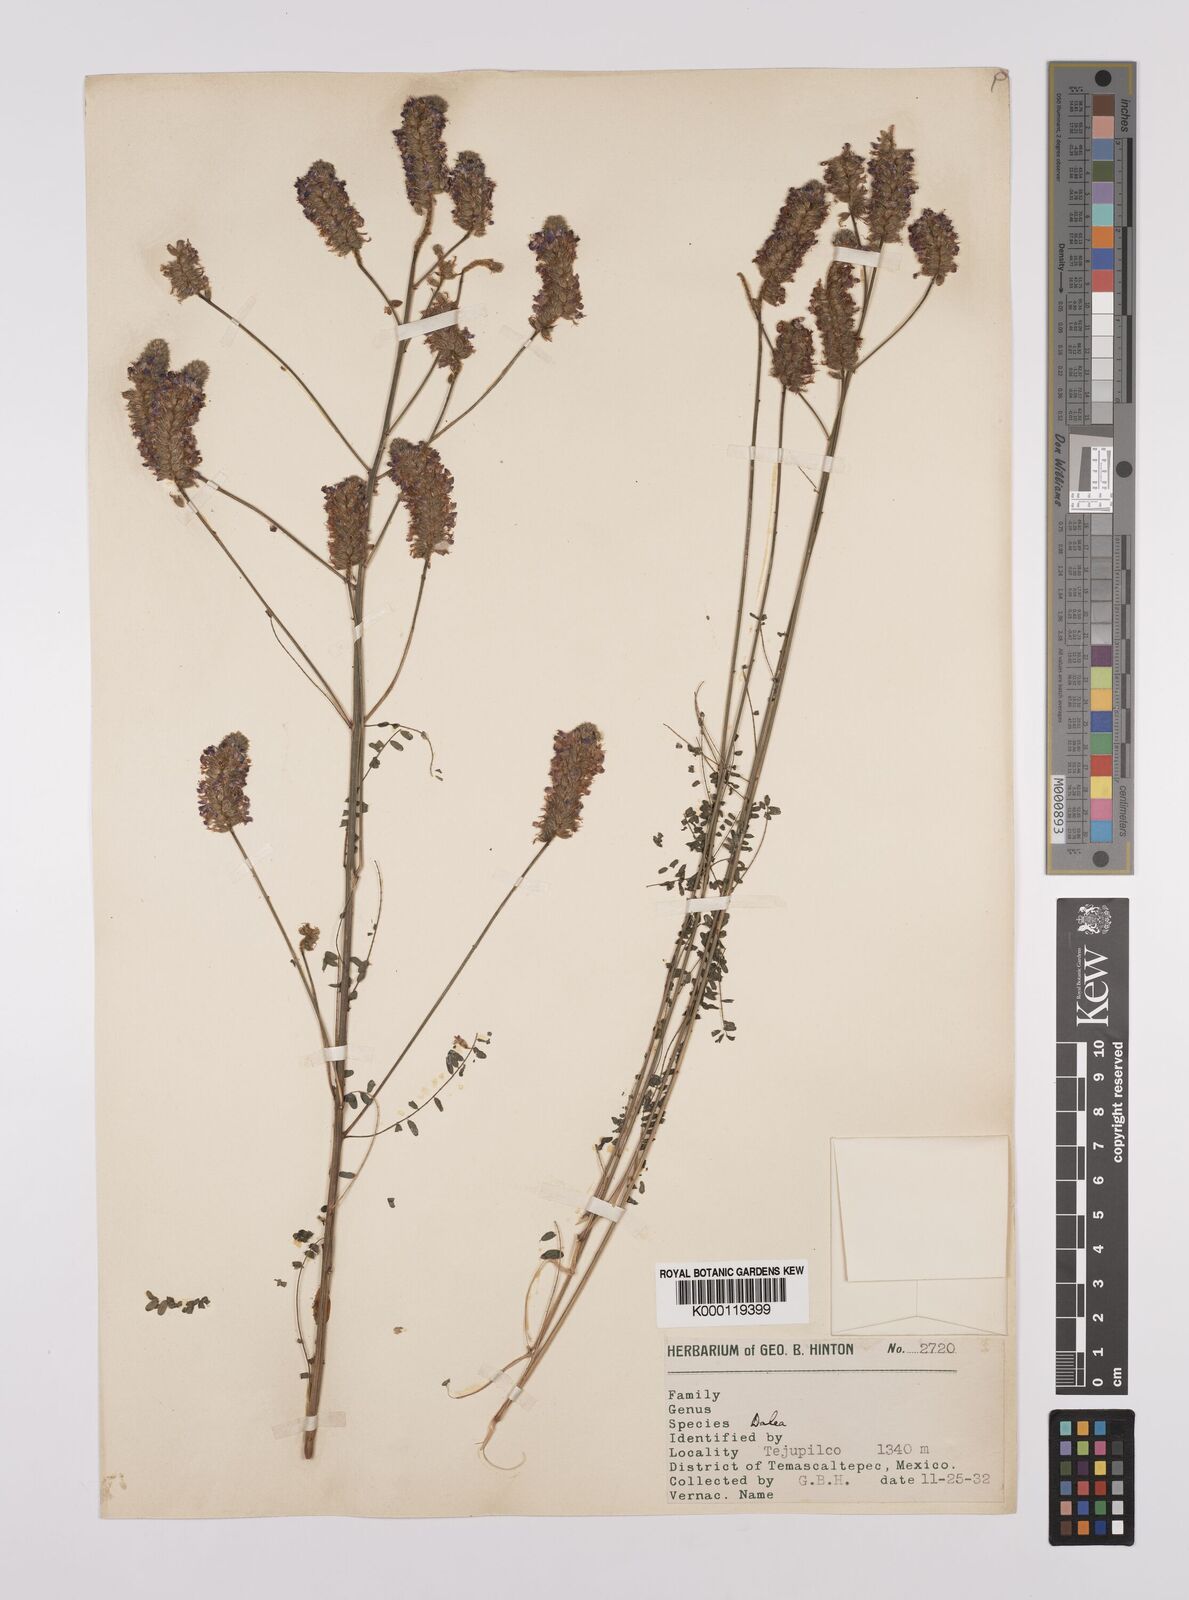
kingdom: Plantae
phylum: Tracheophyta
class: Magnoliopsida
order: Fabales
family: Fabaceae
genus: Dalea
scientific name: Dalea
